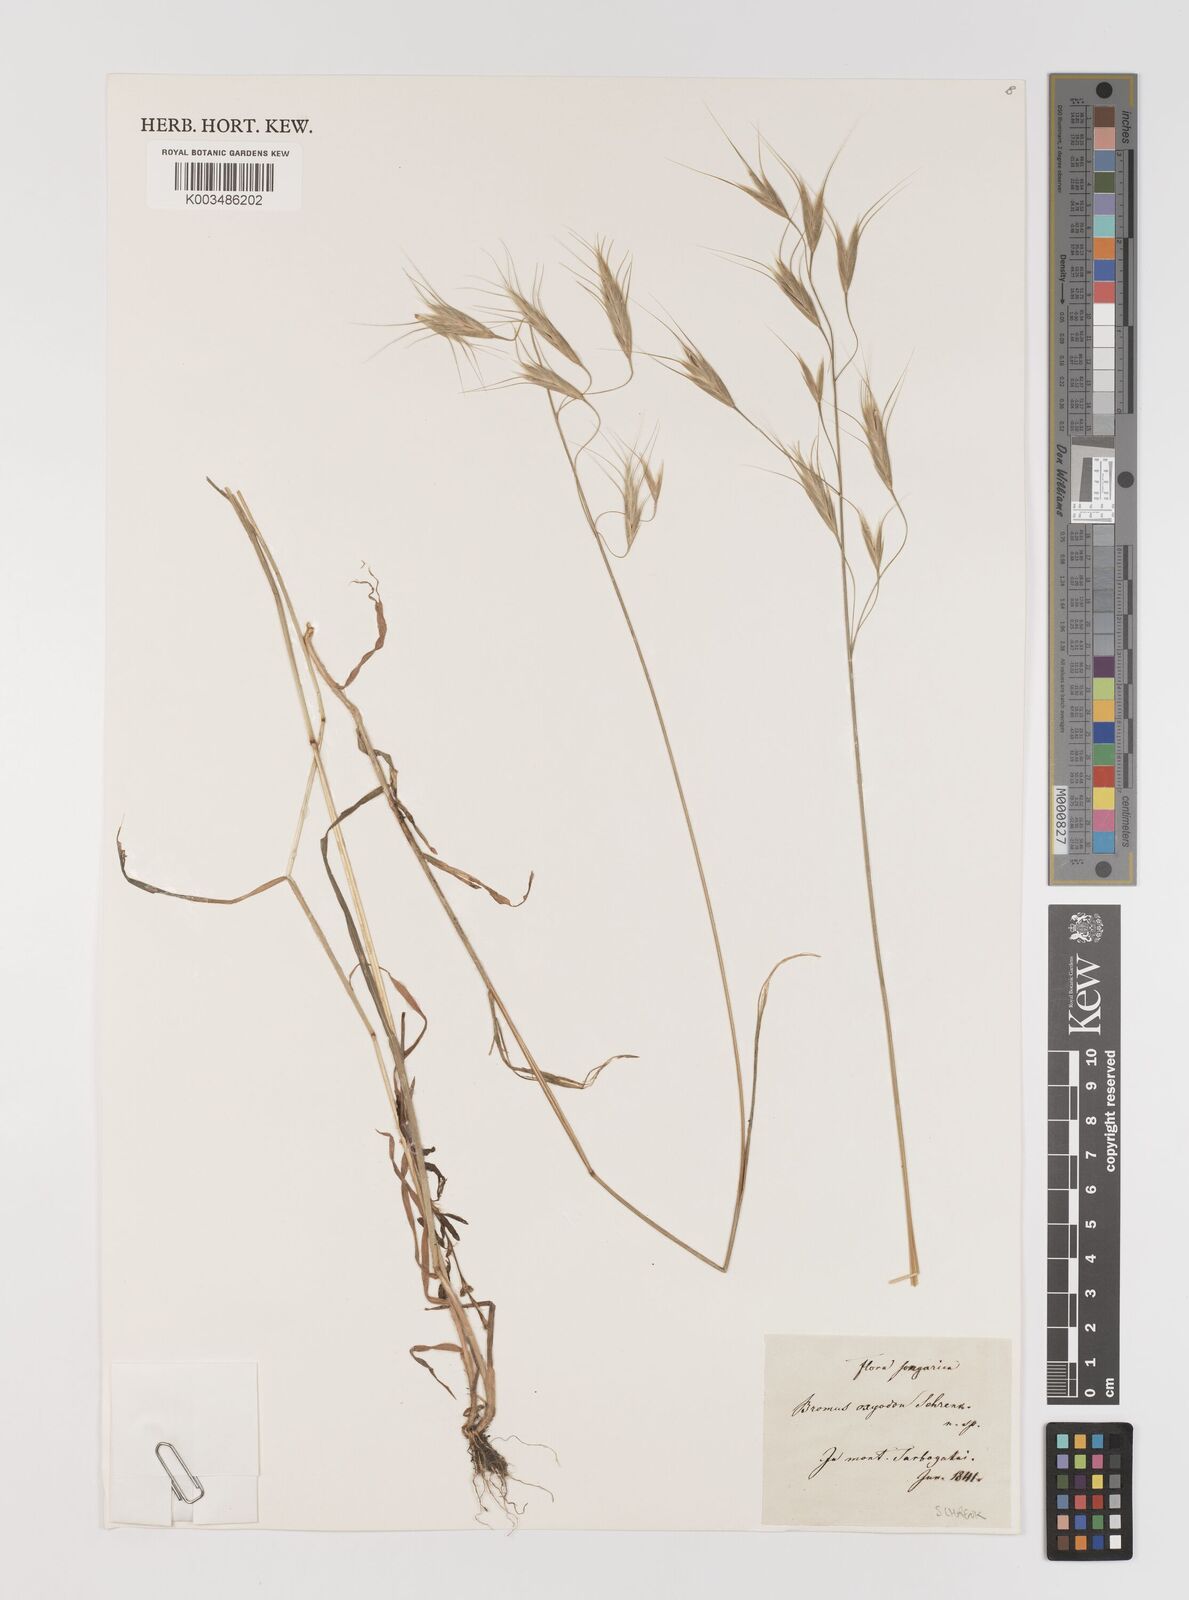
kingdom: Plantae
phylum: Tracheophyta
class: Liliopsida
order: Poales
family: Poaceae
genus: Bromus
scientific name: Bromus oxyodon
